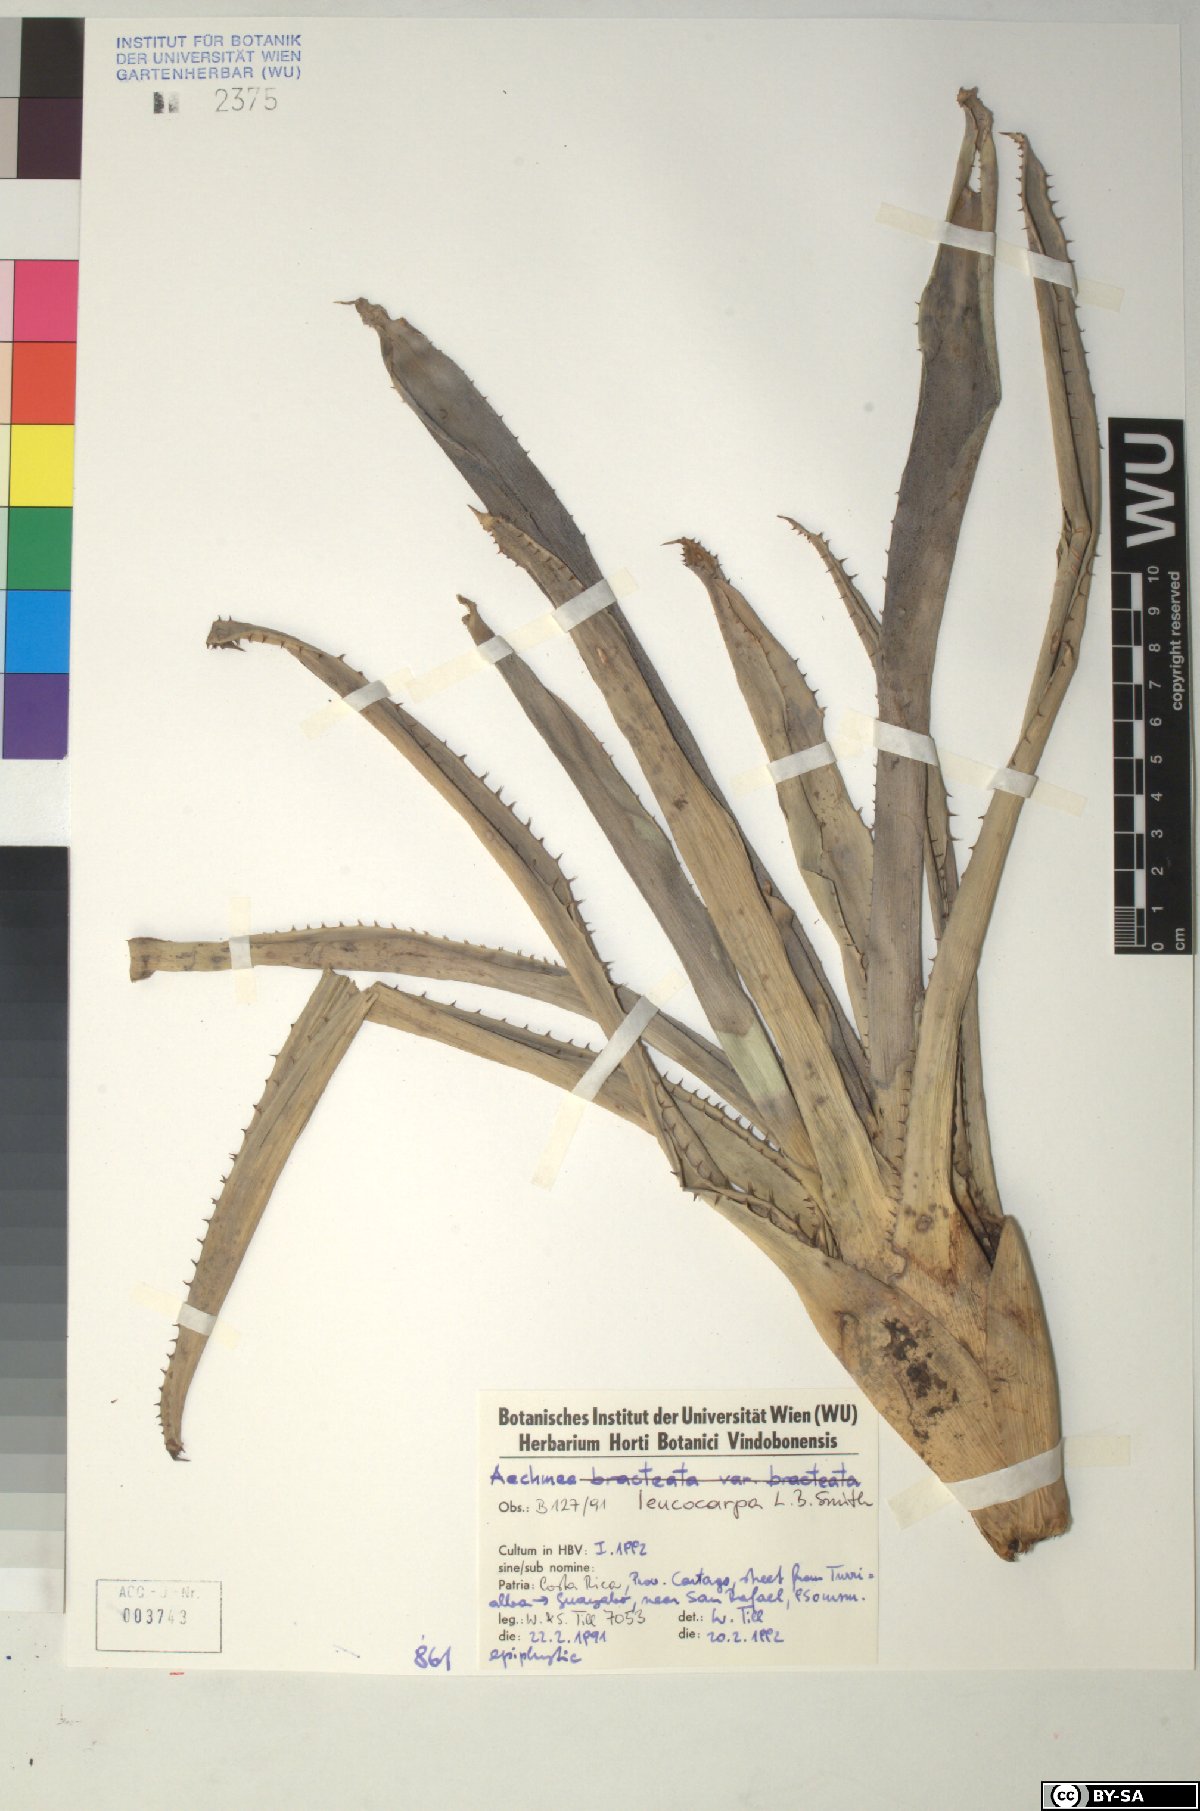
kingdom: Plantae
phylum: Tracheophyta
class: Liliopsida
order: Poales
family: Bromeliaceae
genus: Aechmea
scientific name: Aechmea
